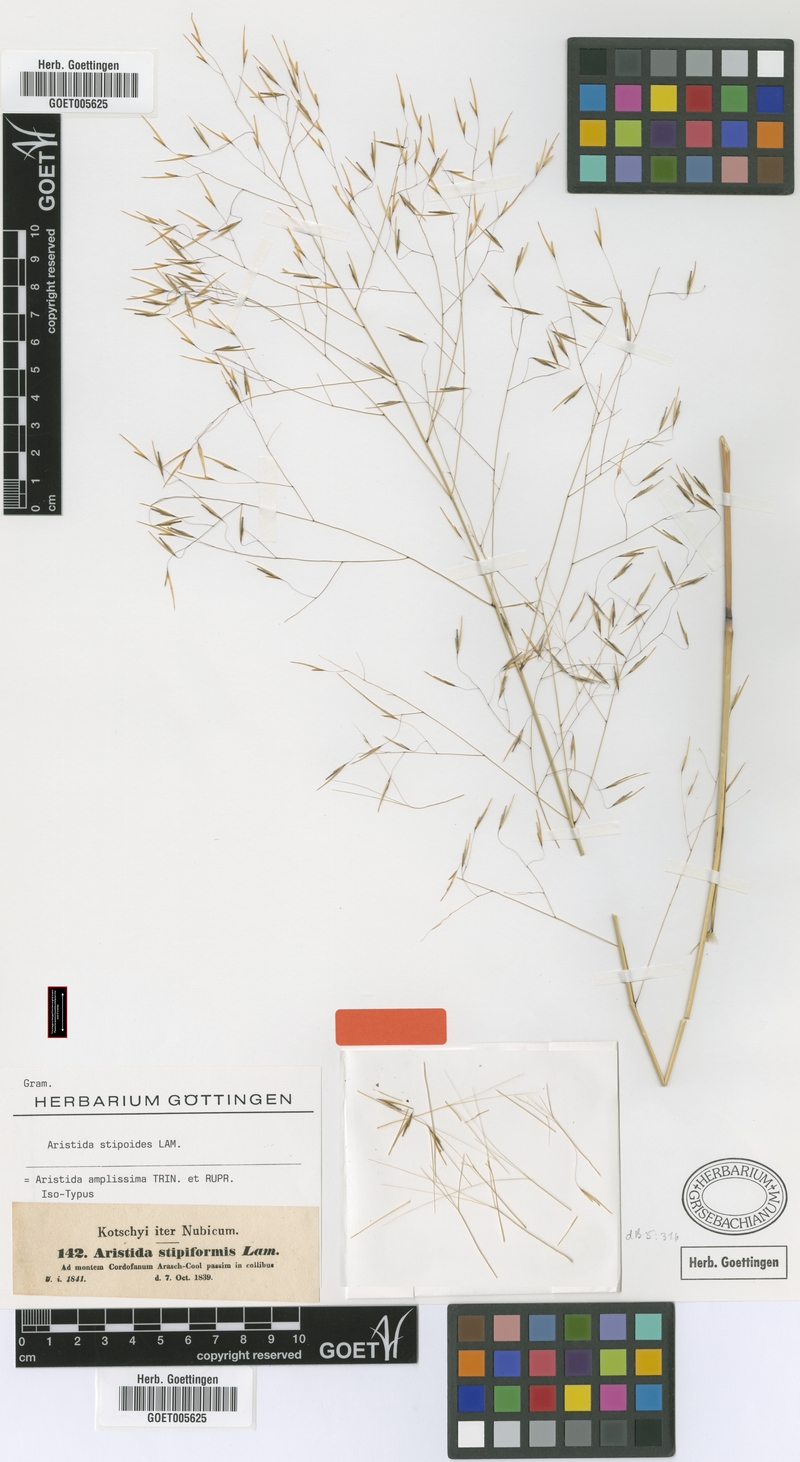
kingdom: Plantae
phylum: Tracheophyta
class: Liliopsida
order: Poales
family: Poaceae
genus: Aristida
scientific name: Aristida stipoides
